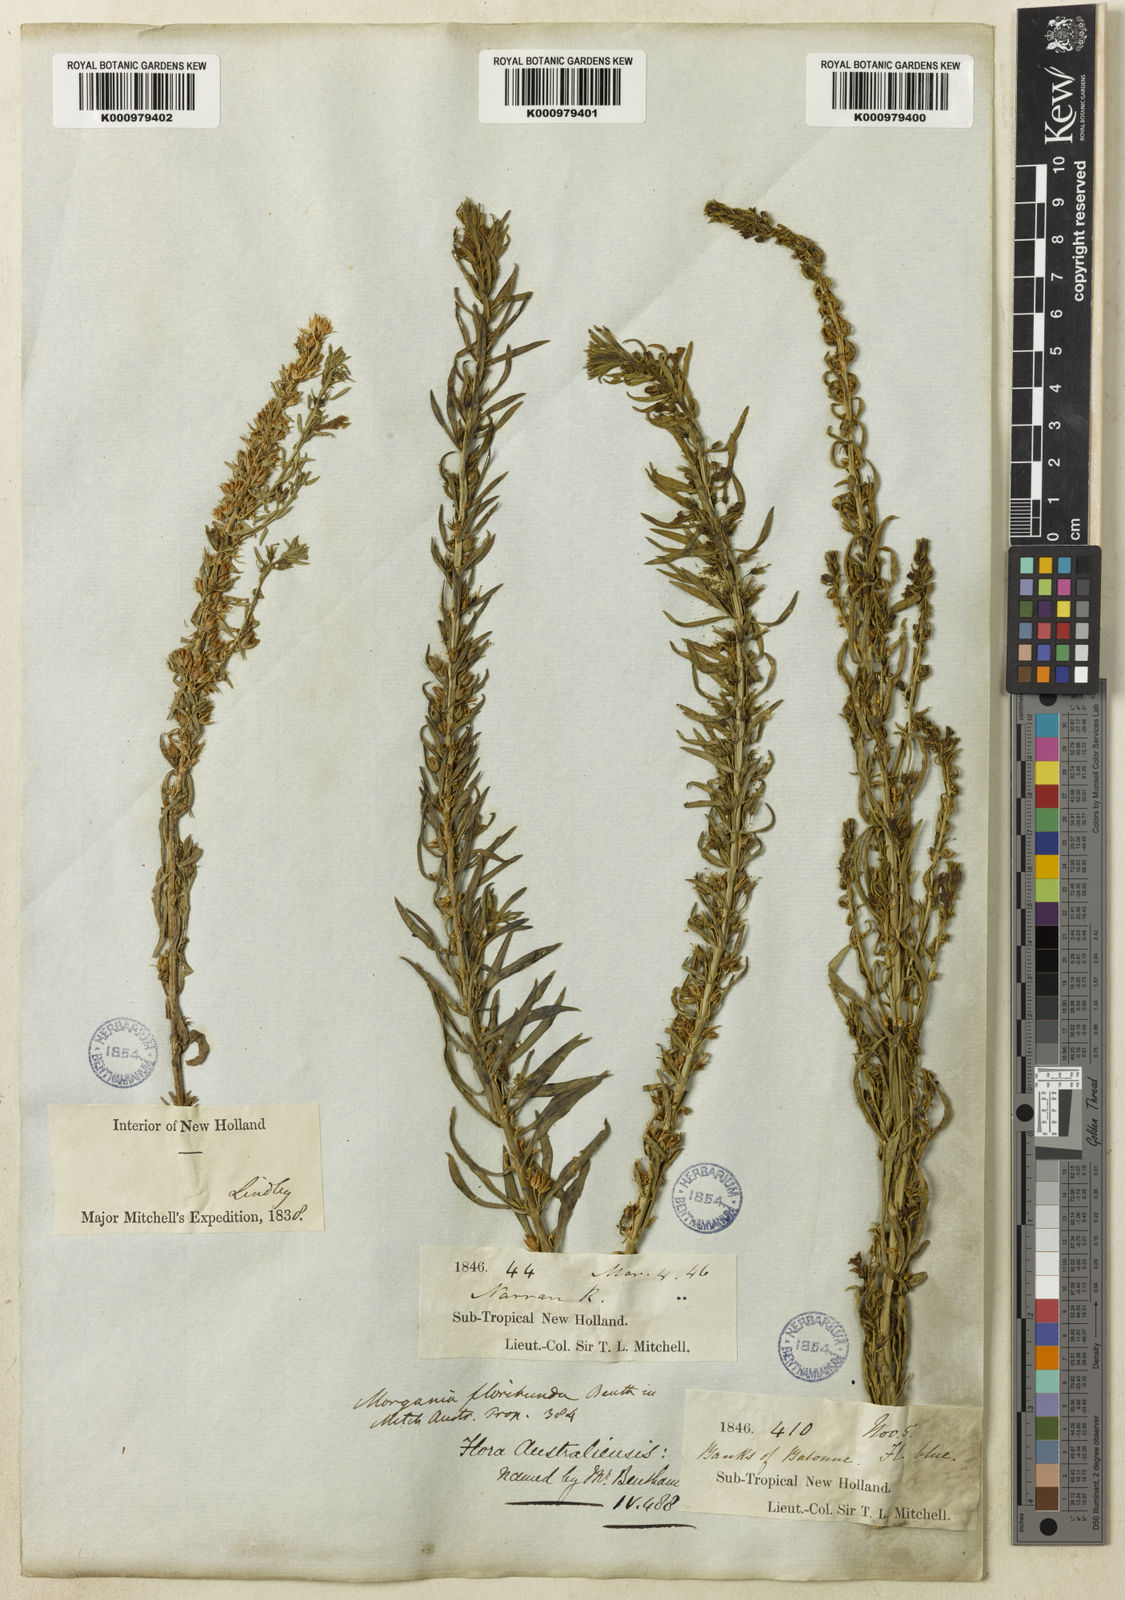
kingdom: Plantae
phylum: Tracheophyta
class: Magnoliopsida
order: Lamiales
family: Plantaginaceae
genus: Stemodia
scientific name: Stemodia florulenta
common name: Bluerod
